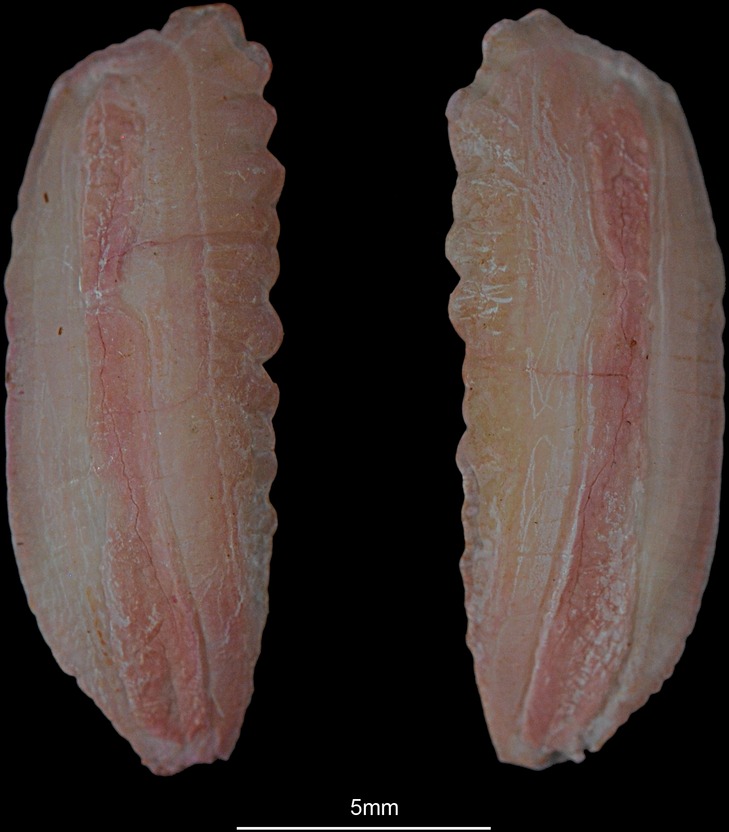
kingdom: Animalia
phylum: Chordata
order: Gadiformes
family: Gadidae
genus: Melanogrammus
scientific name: Melanogrammus aeglefinus
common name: Haddock
